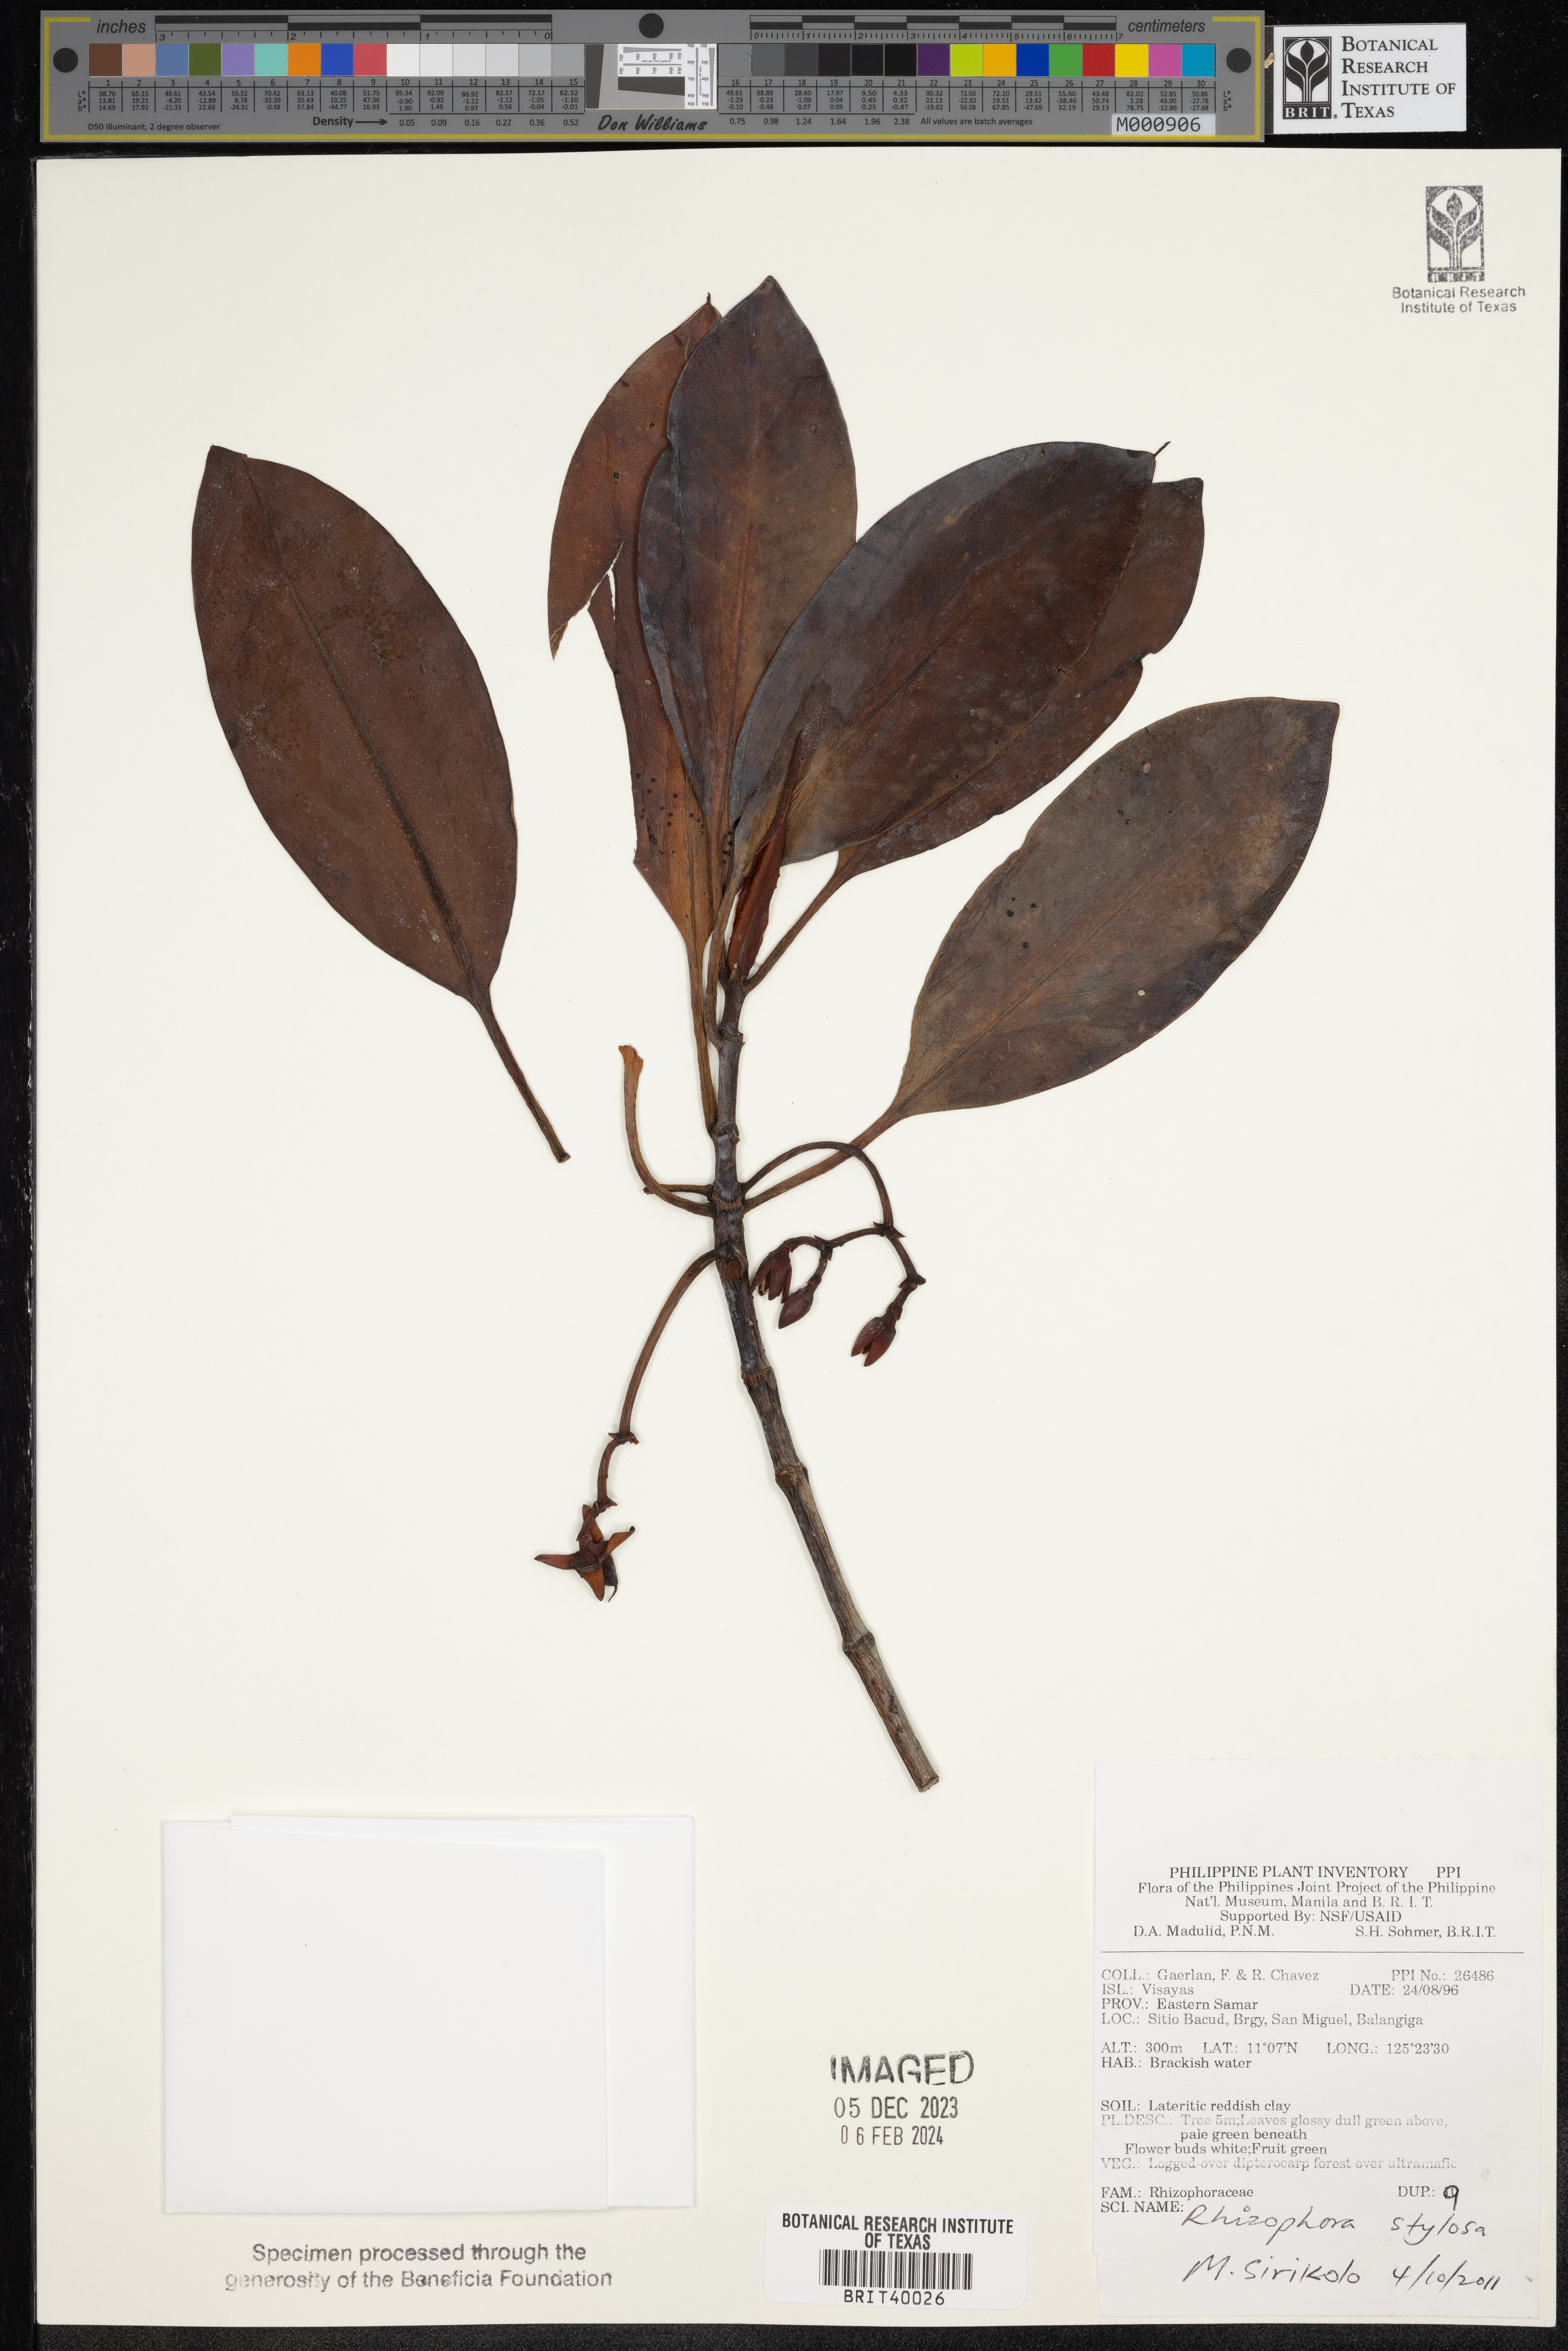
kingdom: Plantae
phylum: Tracheophyta
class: Magnoliopsida
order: Malpighiales
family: Rhizophoraceae
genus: Rhizophora
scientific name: Rhizophora stylosa
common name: Red mangrove
